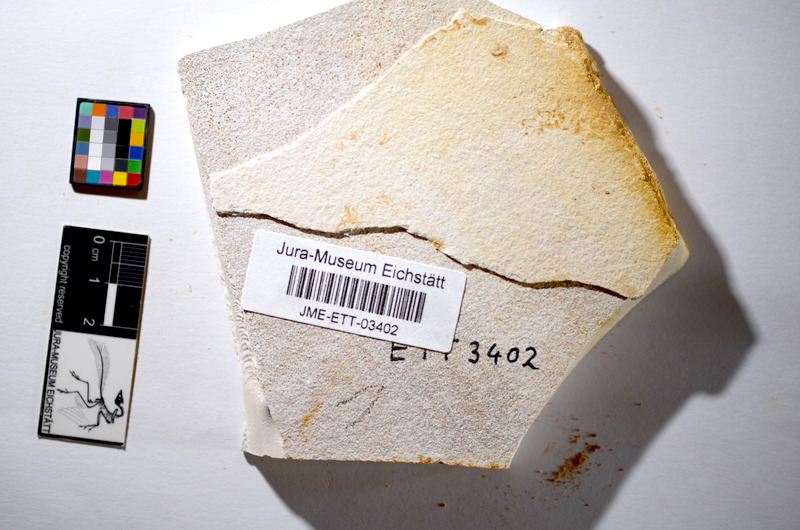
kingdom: Animalia
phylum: Chordata
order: Salmoniformes
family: Orthogonikleithridae
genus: Orthogonikleithrus
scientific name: Orthogonikleithrus hoelli
